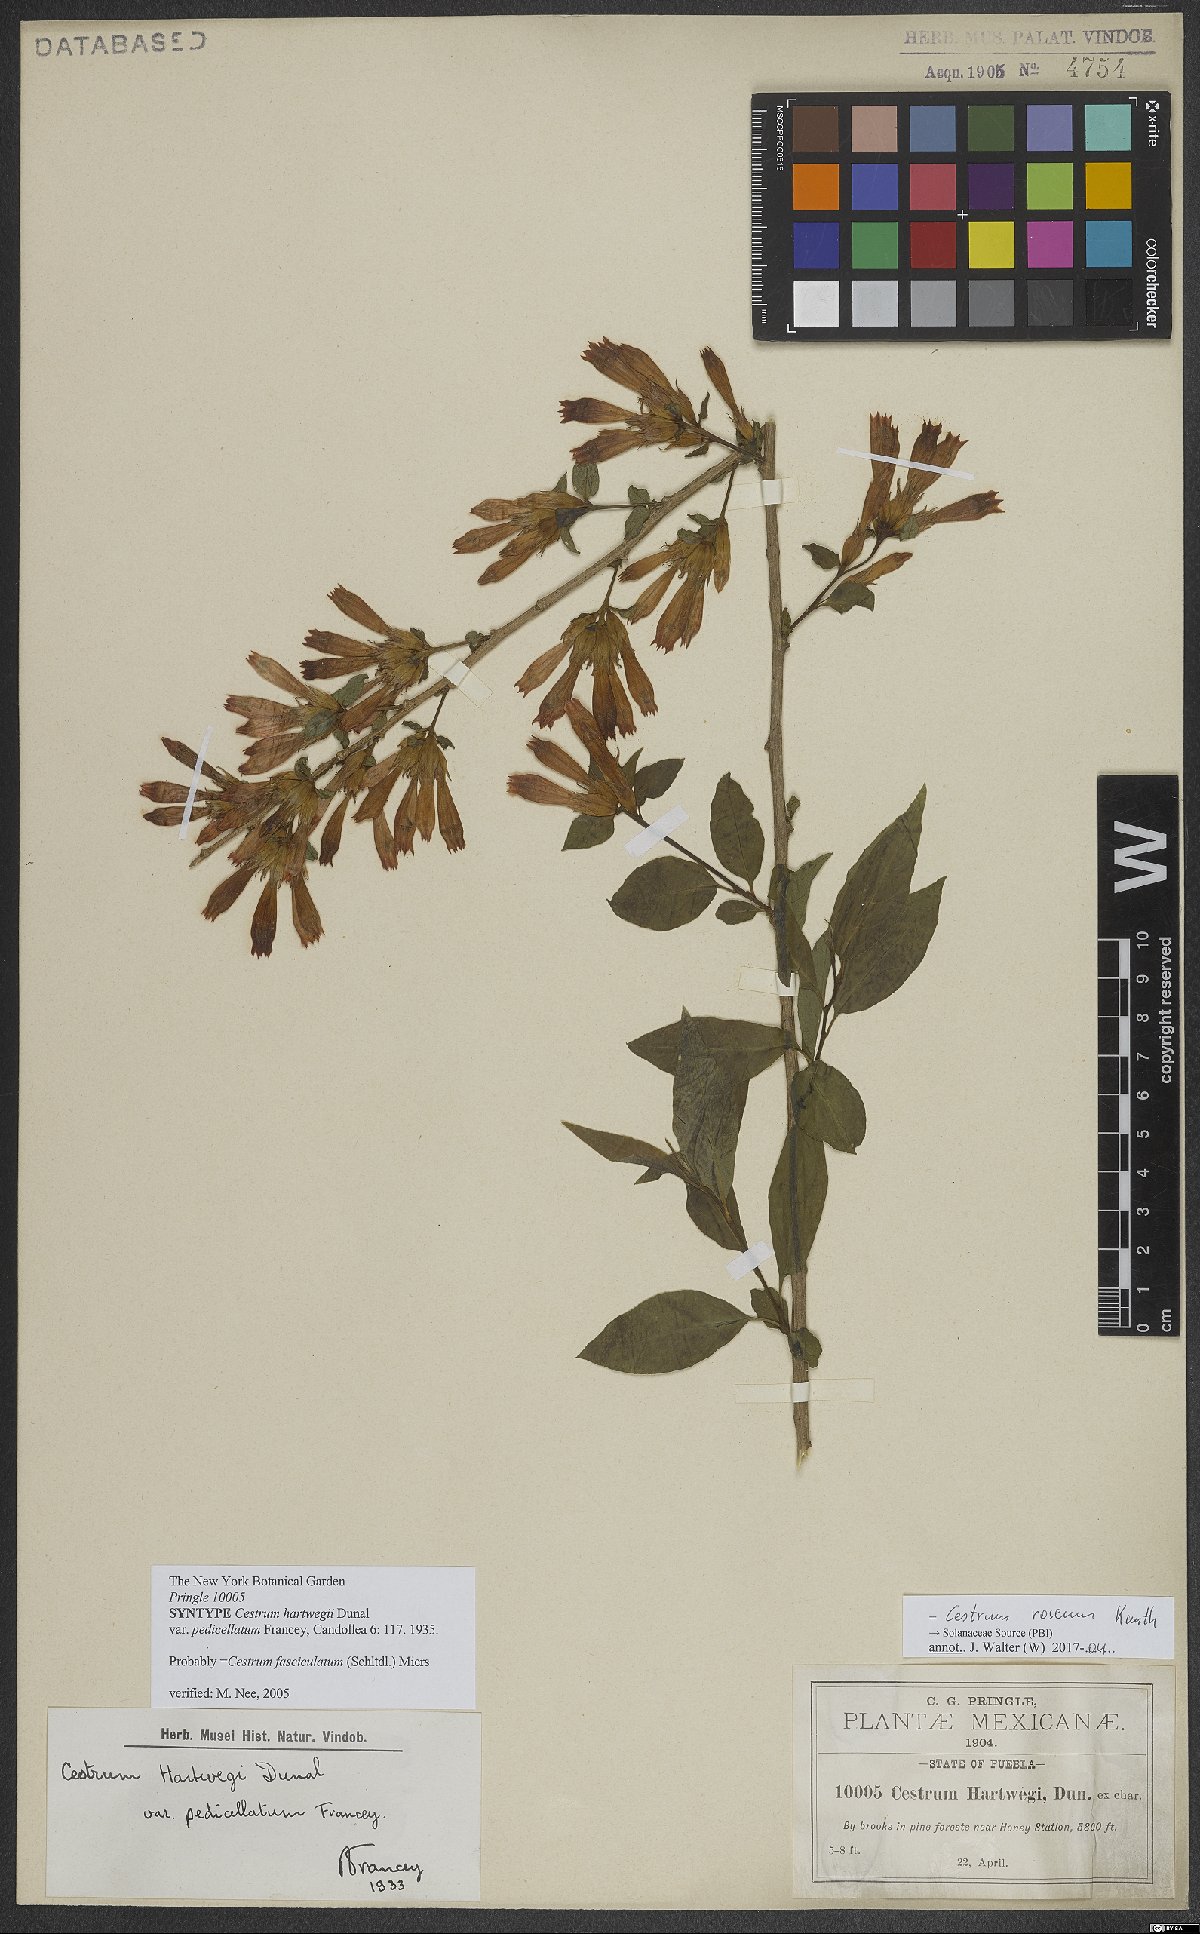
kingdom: Plantae
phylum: Tracheophyta
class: Magnoliopsida
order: Solanales
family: Solanaceae
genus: Cestrum
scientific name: Cestrum roseum
